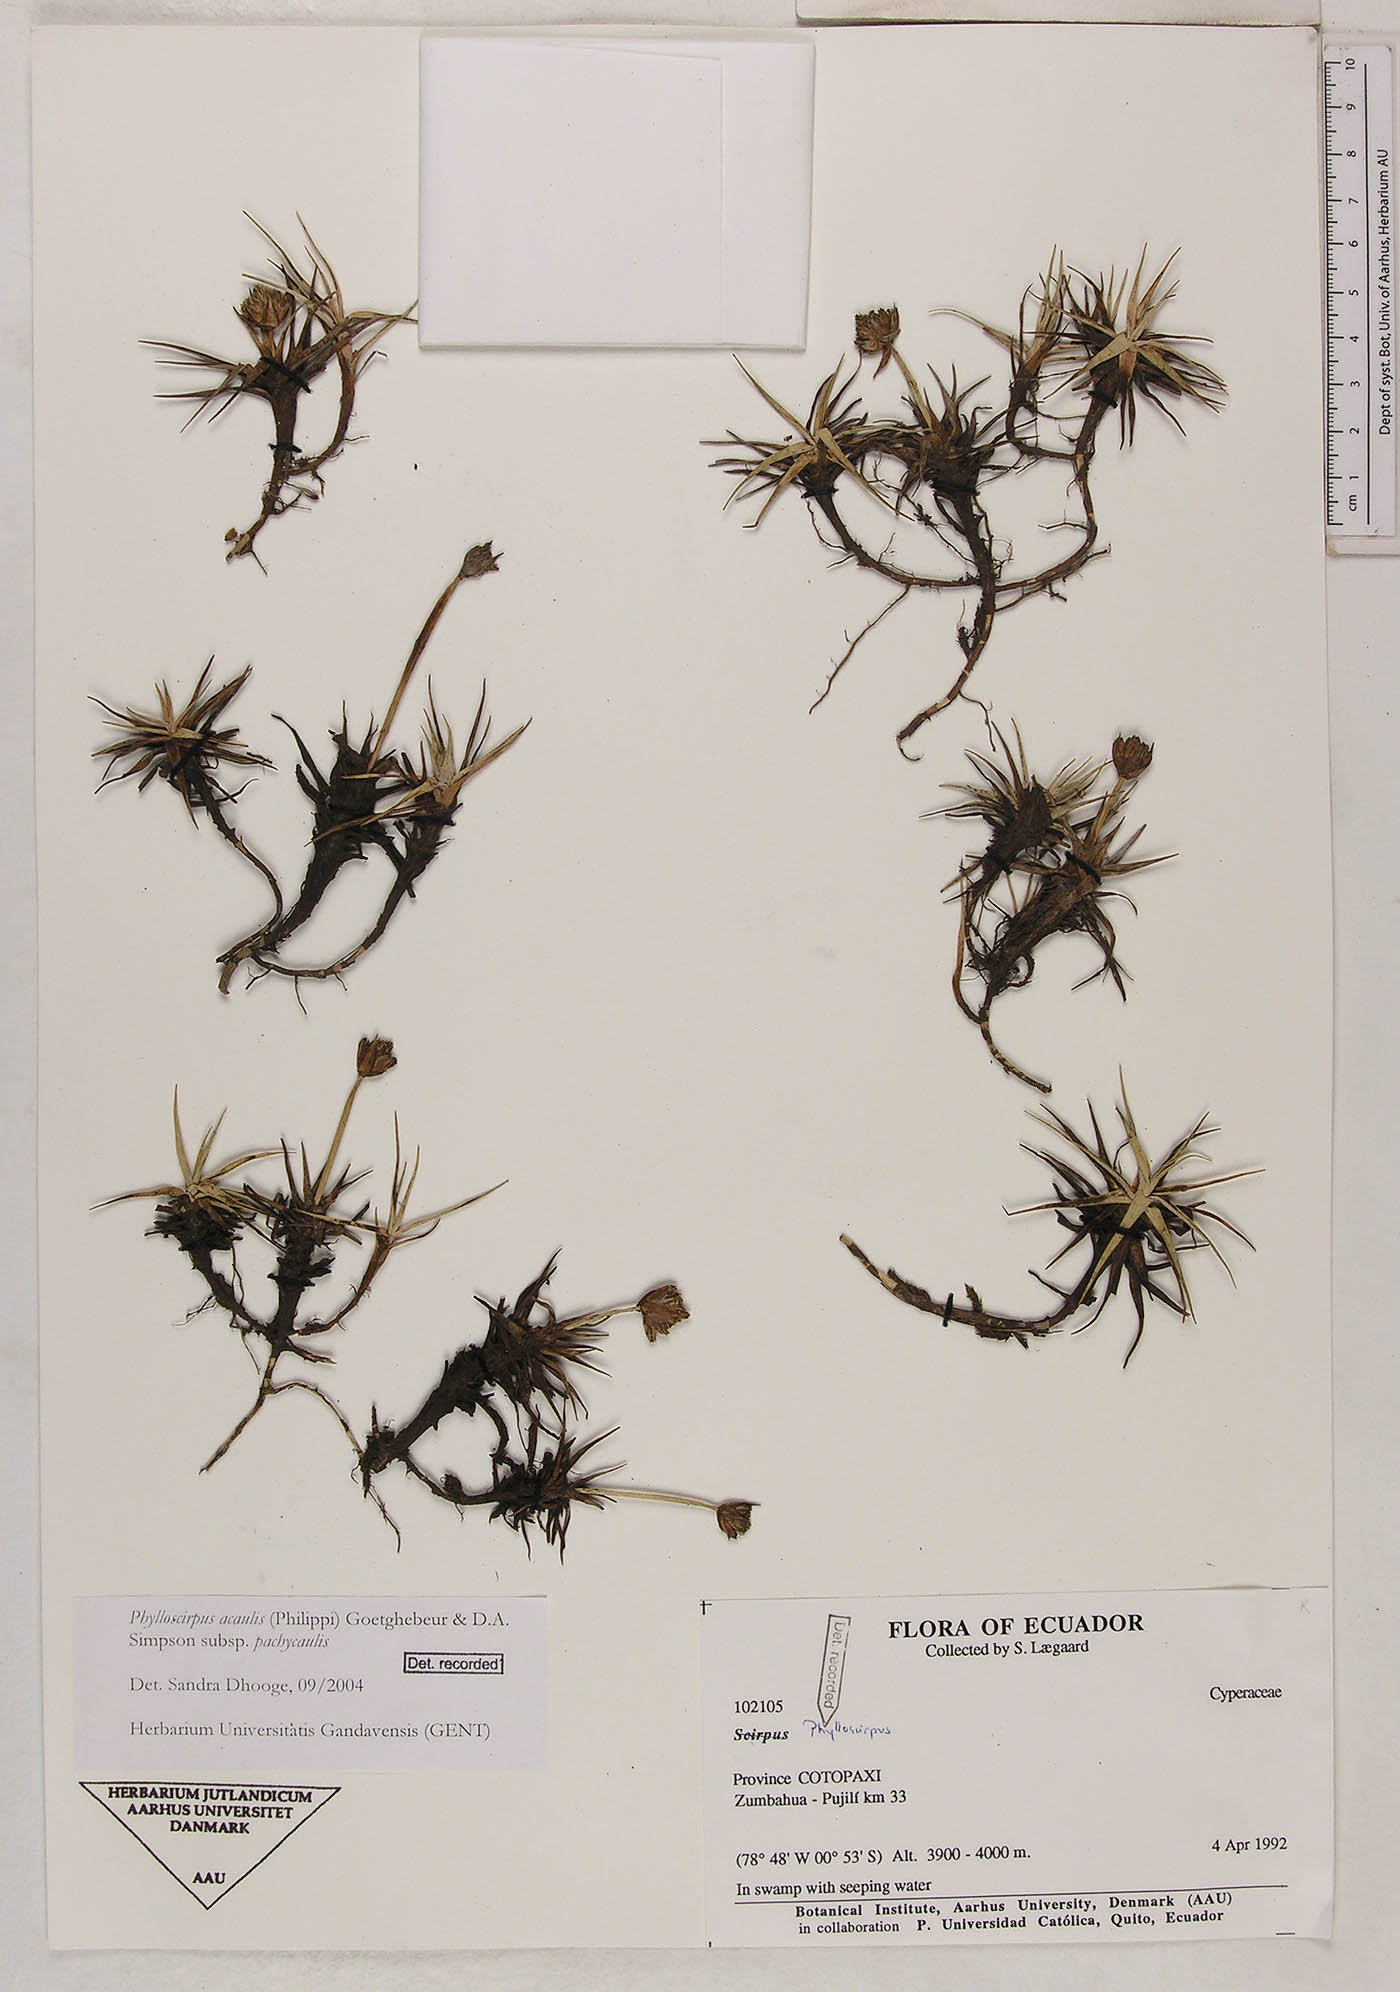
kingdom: Plantae
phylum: Tracheophyta
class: Liliopsida
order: Poales
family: Cyperaceae
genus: Phylloscirpus
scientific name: Phylloscirpus acaulis
